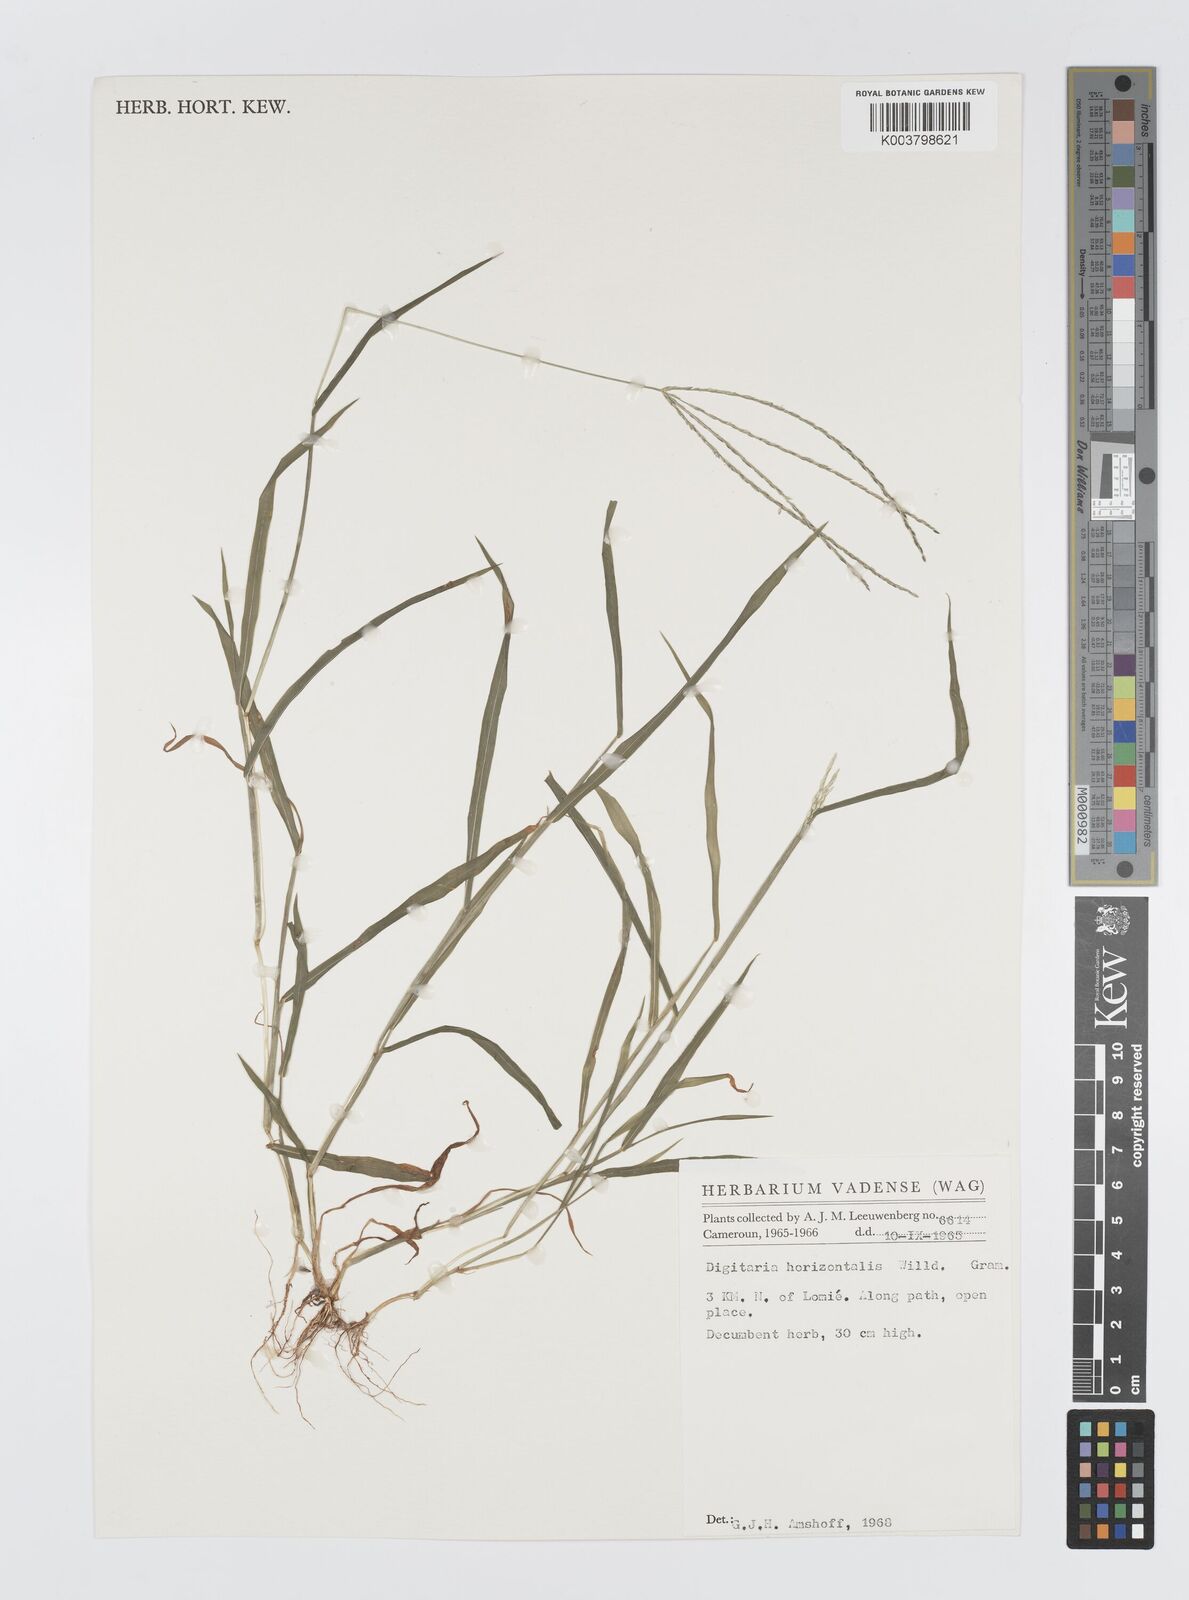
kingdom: Plantae
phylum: Tracheophyta
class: Liliopsida
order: Poales
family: Poaceae
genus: Digitaria
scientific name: Digitaria horizontalis
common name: Jamaican crabgrass
